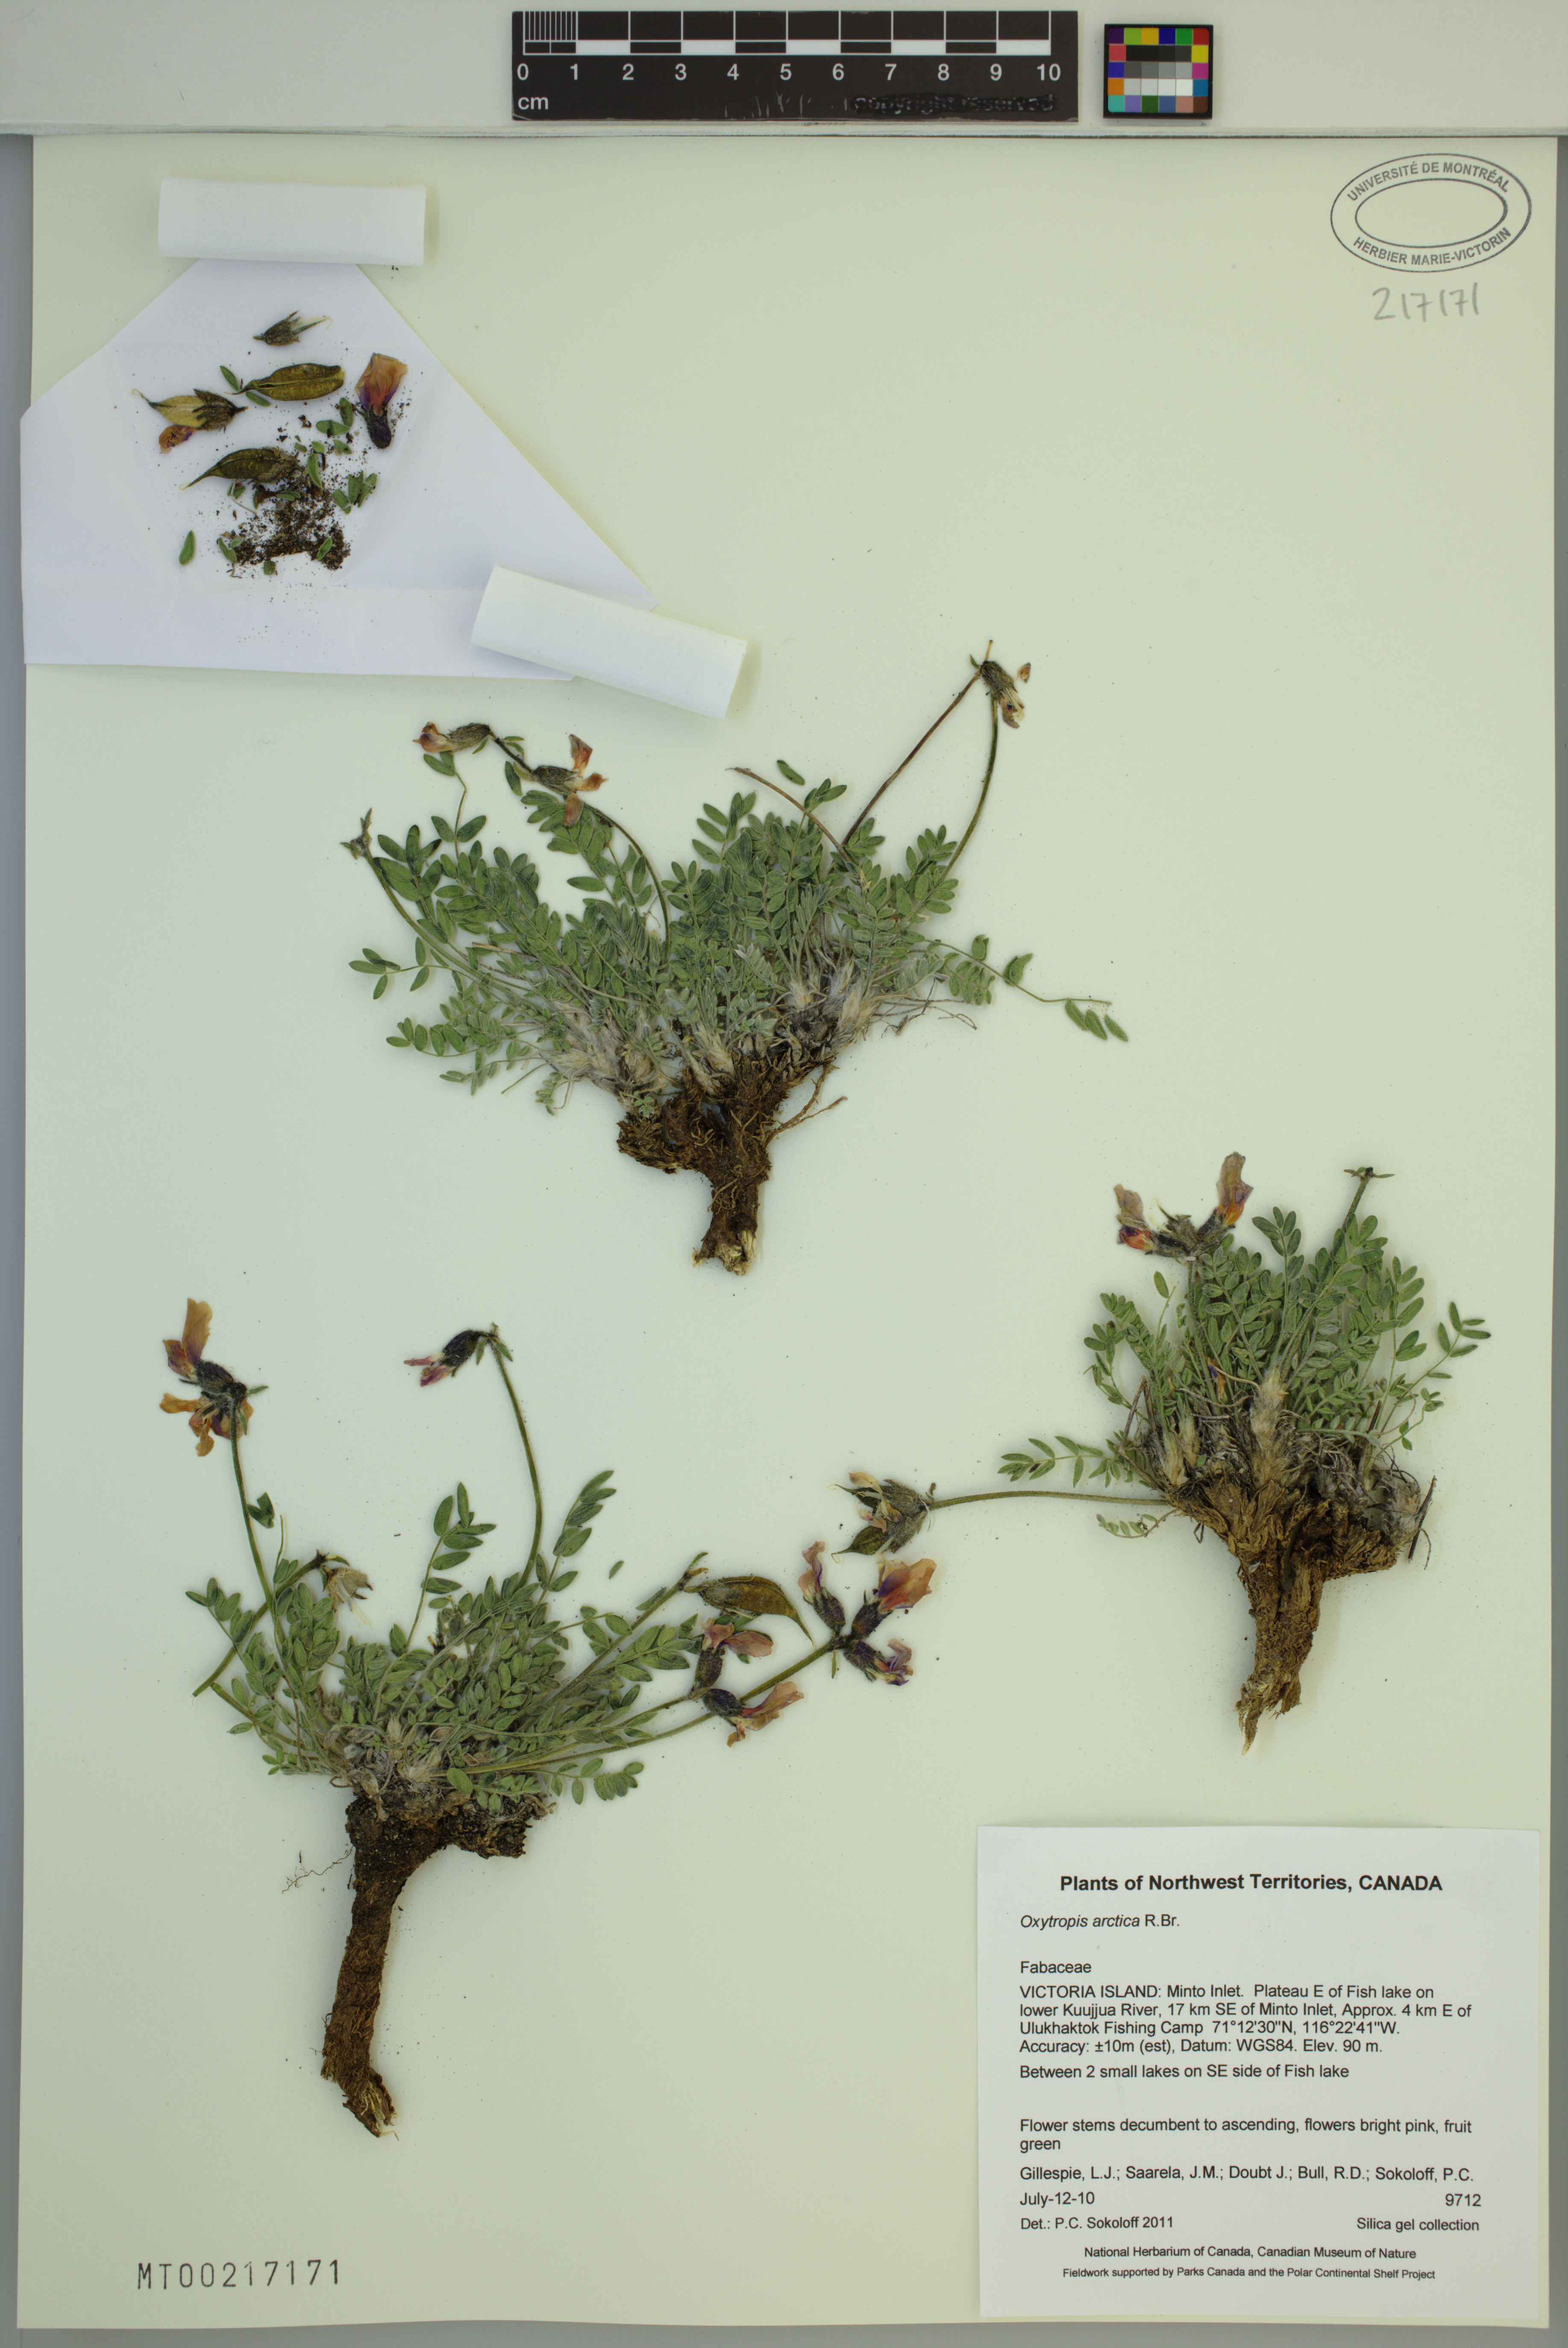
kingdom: Plantae
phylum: Tracheophyta
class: Magnoliopsida
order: Fabales
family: Fabaceae
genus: Oxytropis
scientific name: Oxytropis arctica
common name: Arctic locoweed
